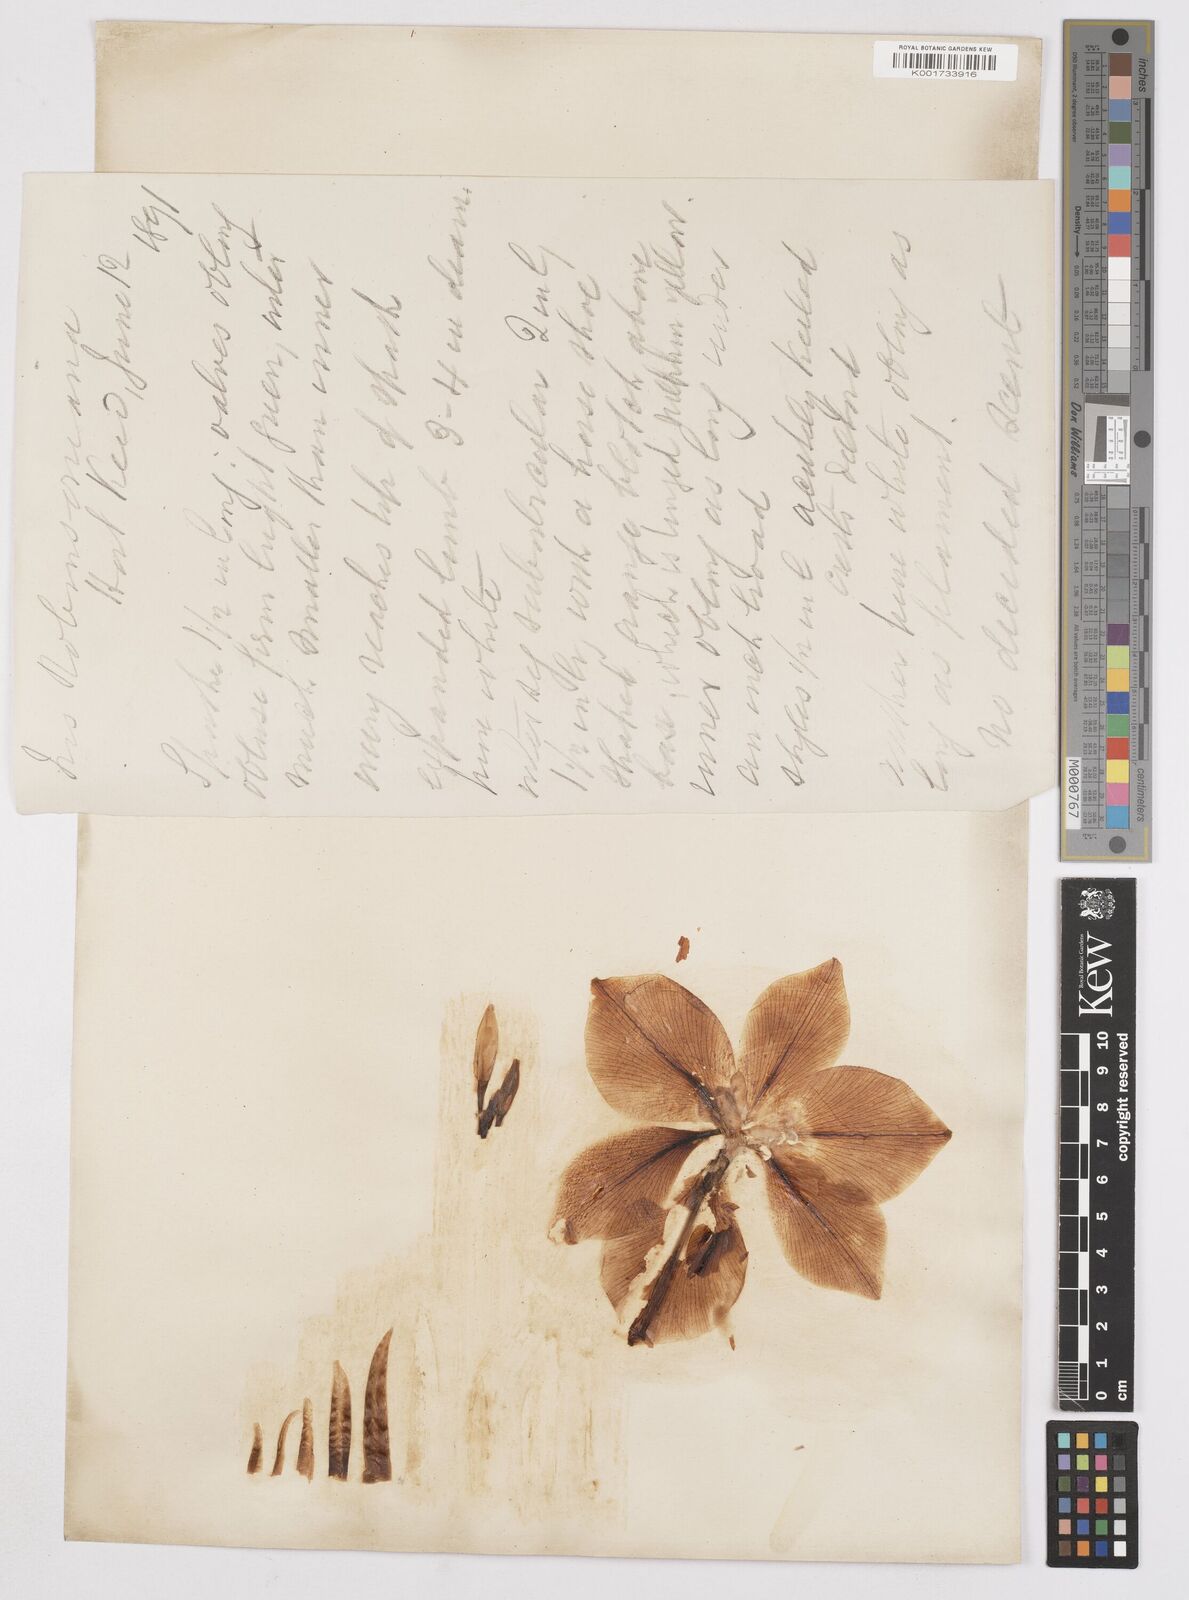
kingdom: Plantae
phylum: Tracheophyta
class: Liliopsida
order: Asparagales
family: Iridaceae
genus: Dietes
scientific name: Dietes robinsoniana
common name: Wedding-lily
